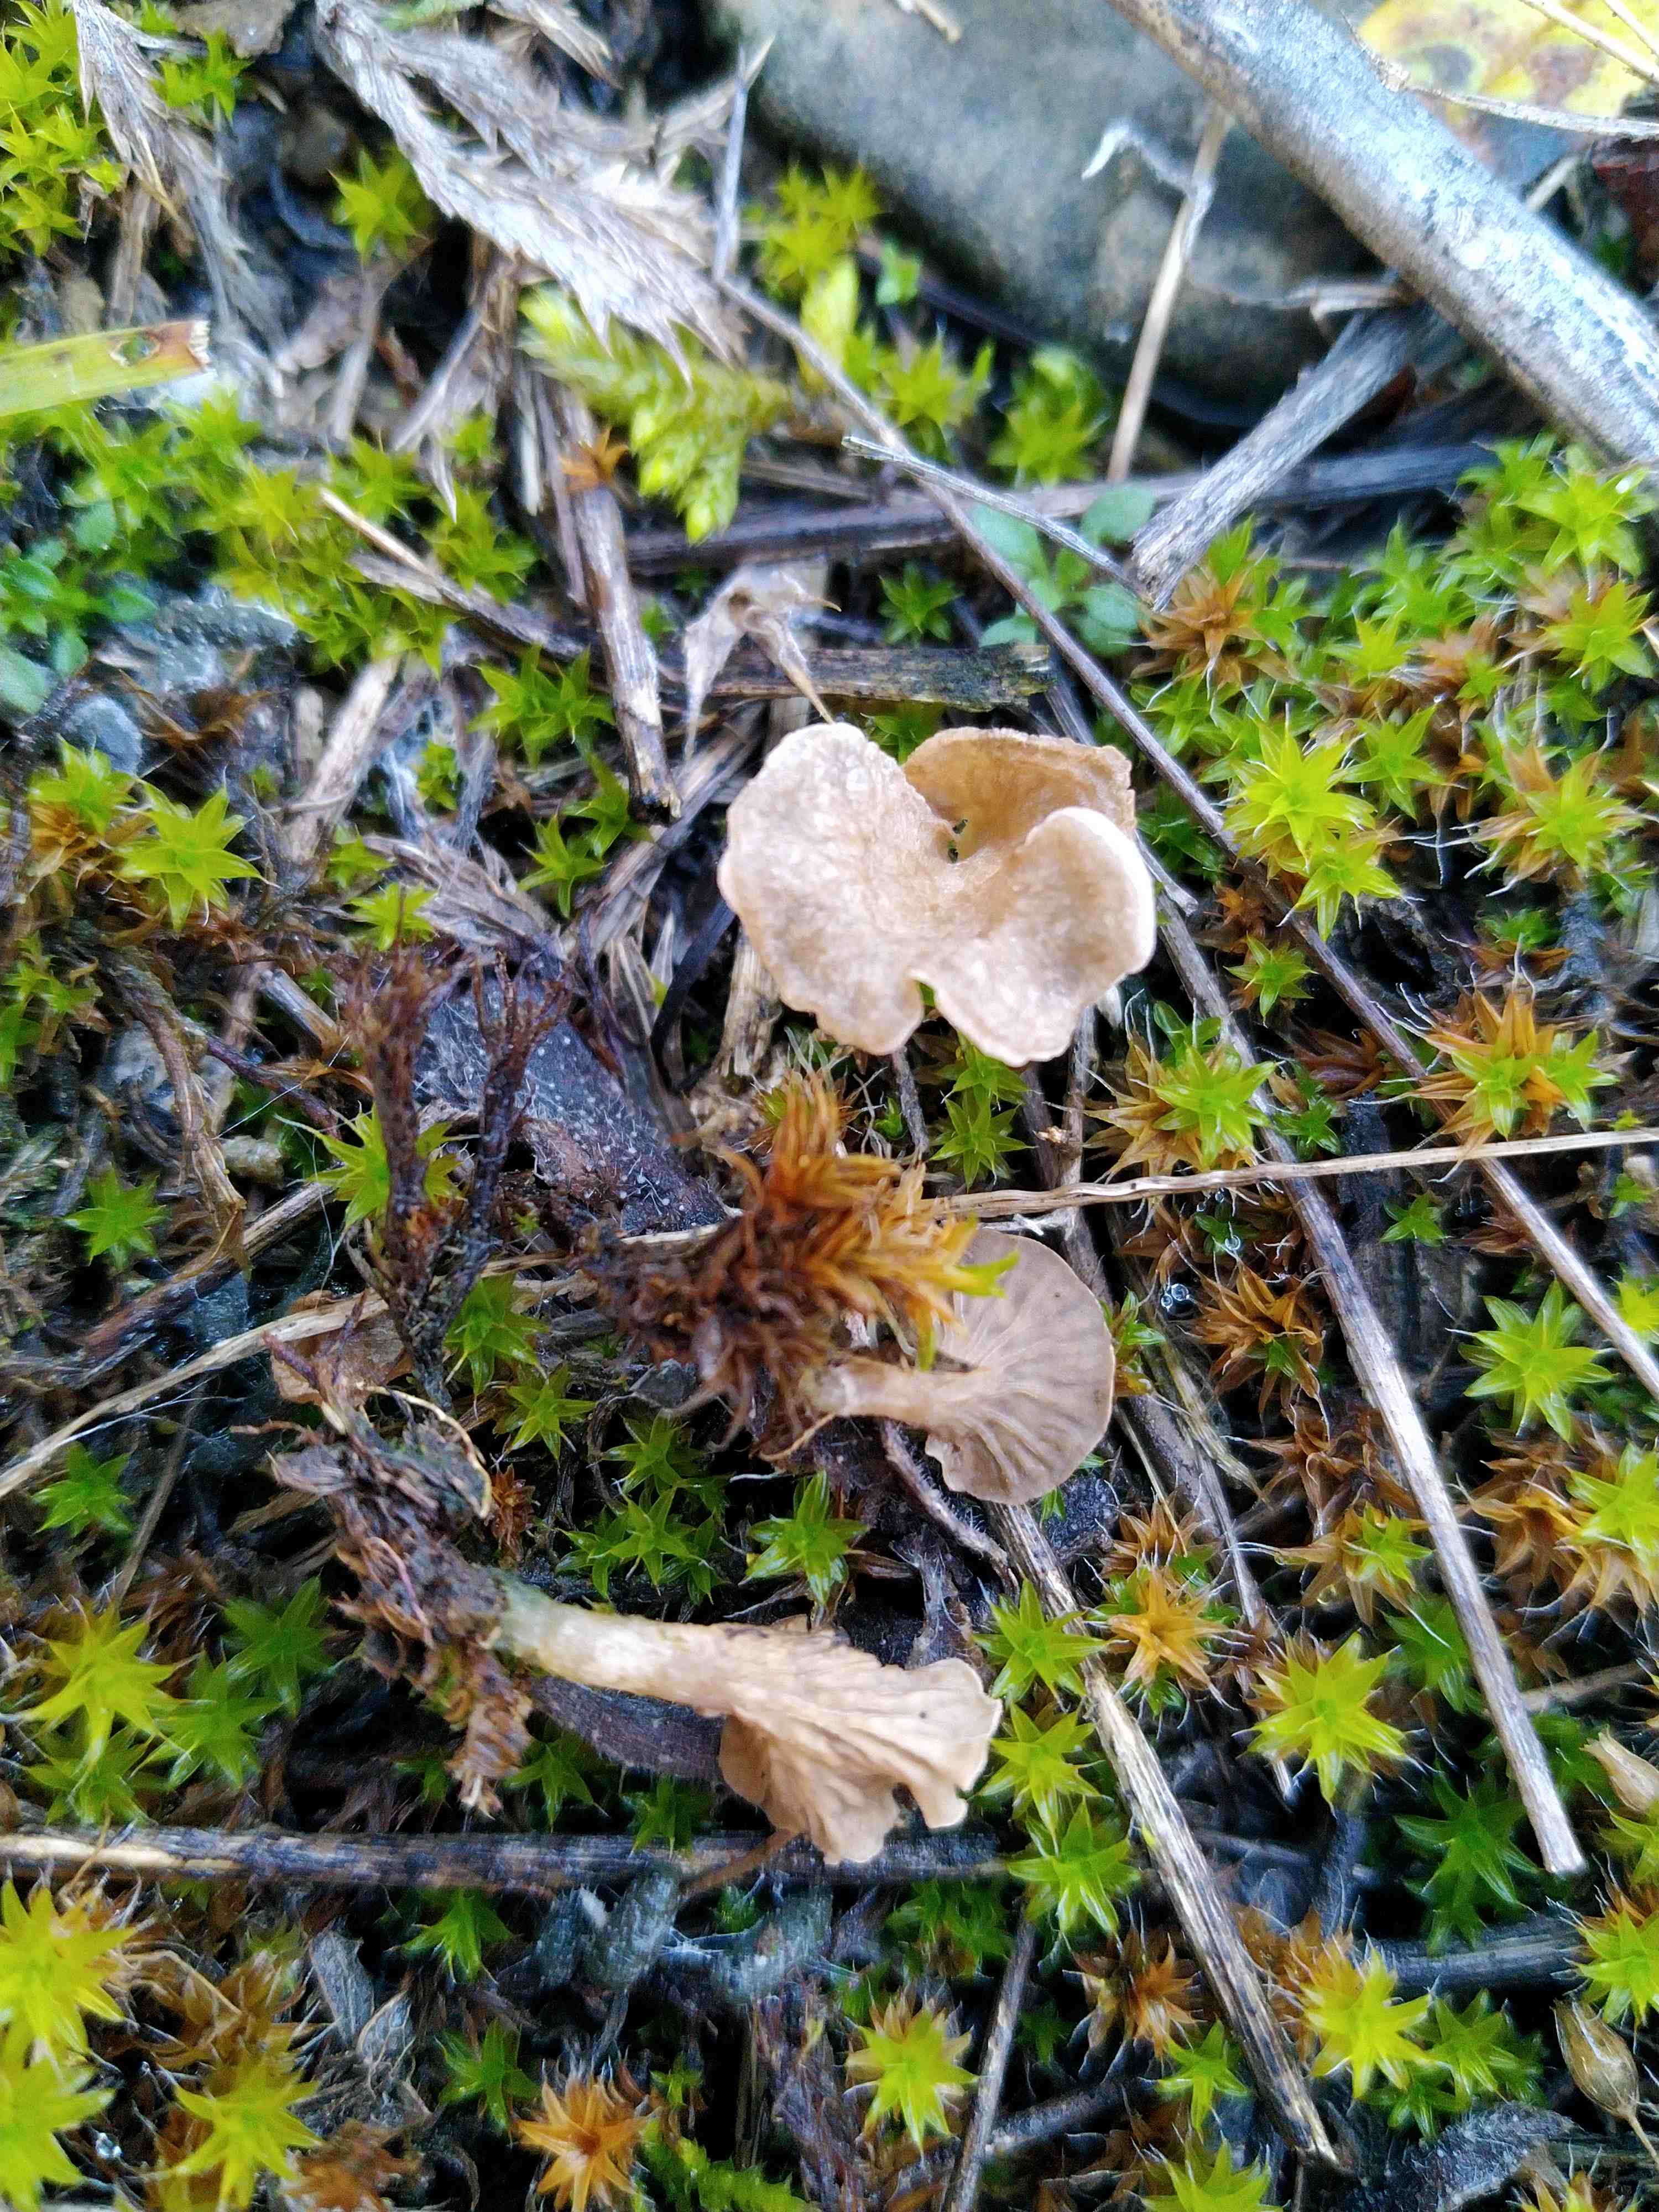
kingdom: Fungi
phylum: Basidiomycota
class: Agaricomycetes
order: Agaricales
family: Hygrophoraceae
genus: Arrhenia
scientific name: Arrhenia spathulata
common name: skæv fontænehat
